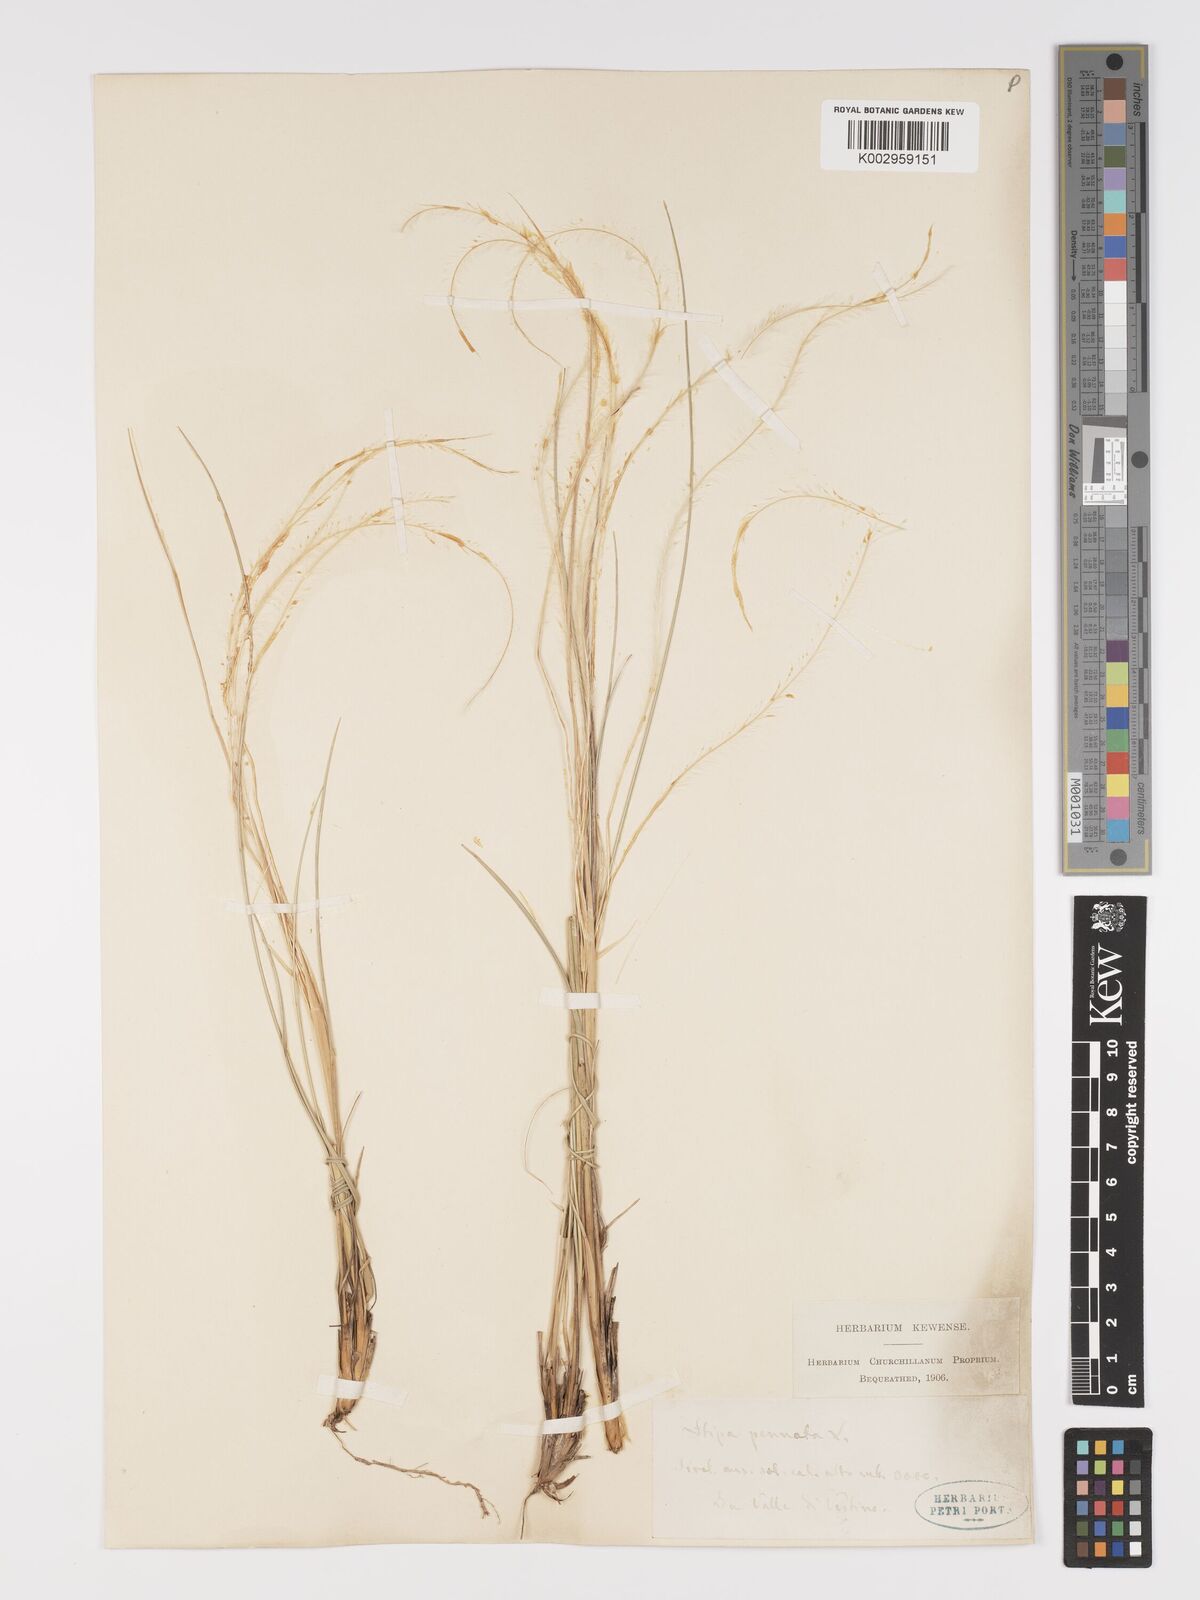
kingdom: Plantae
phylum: Tracheophyta
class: Liliopsida
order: Poales
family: Poaceae
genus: Stipa
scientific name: Stipa pennata
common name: European feather grass
